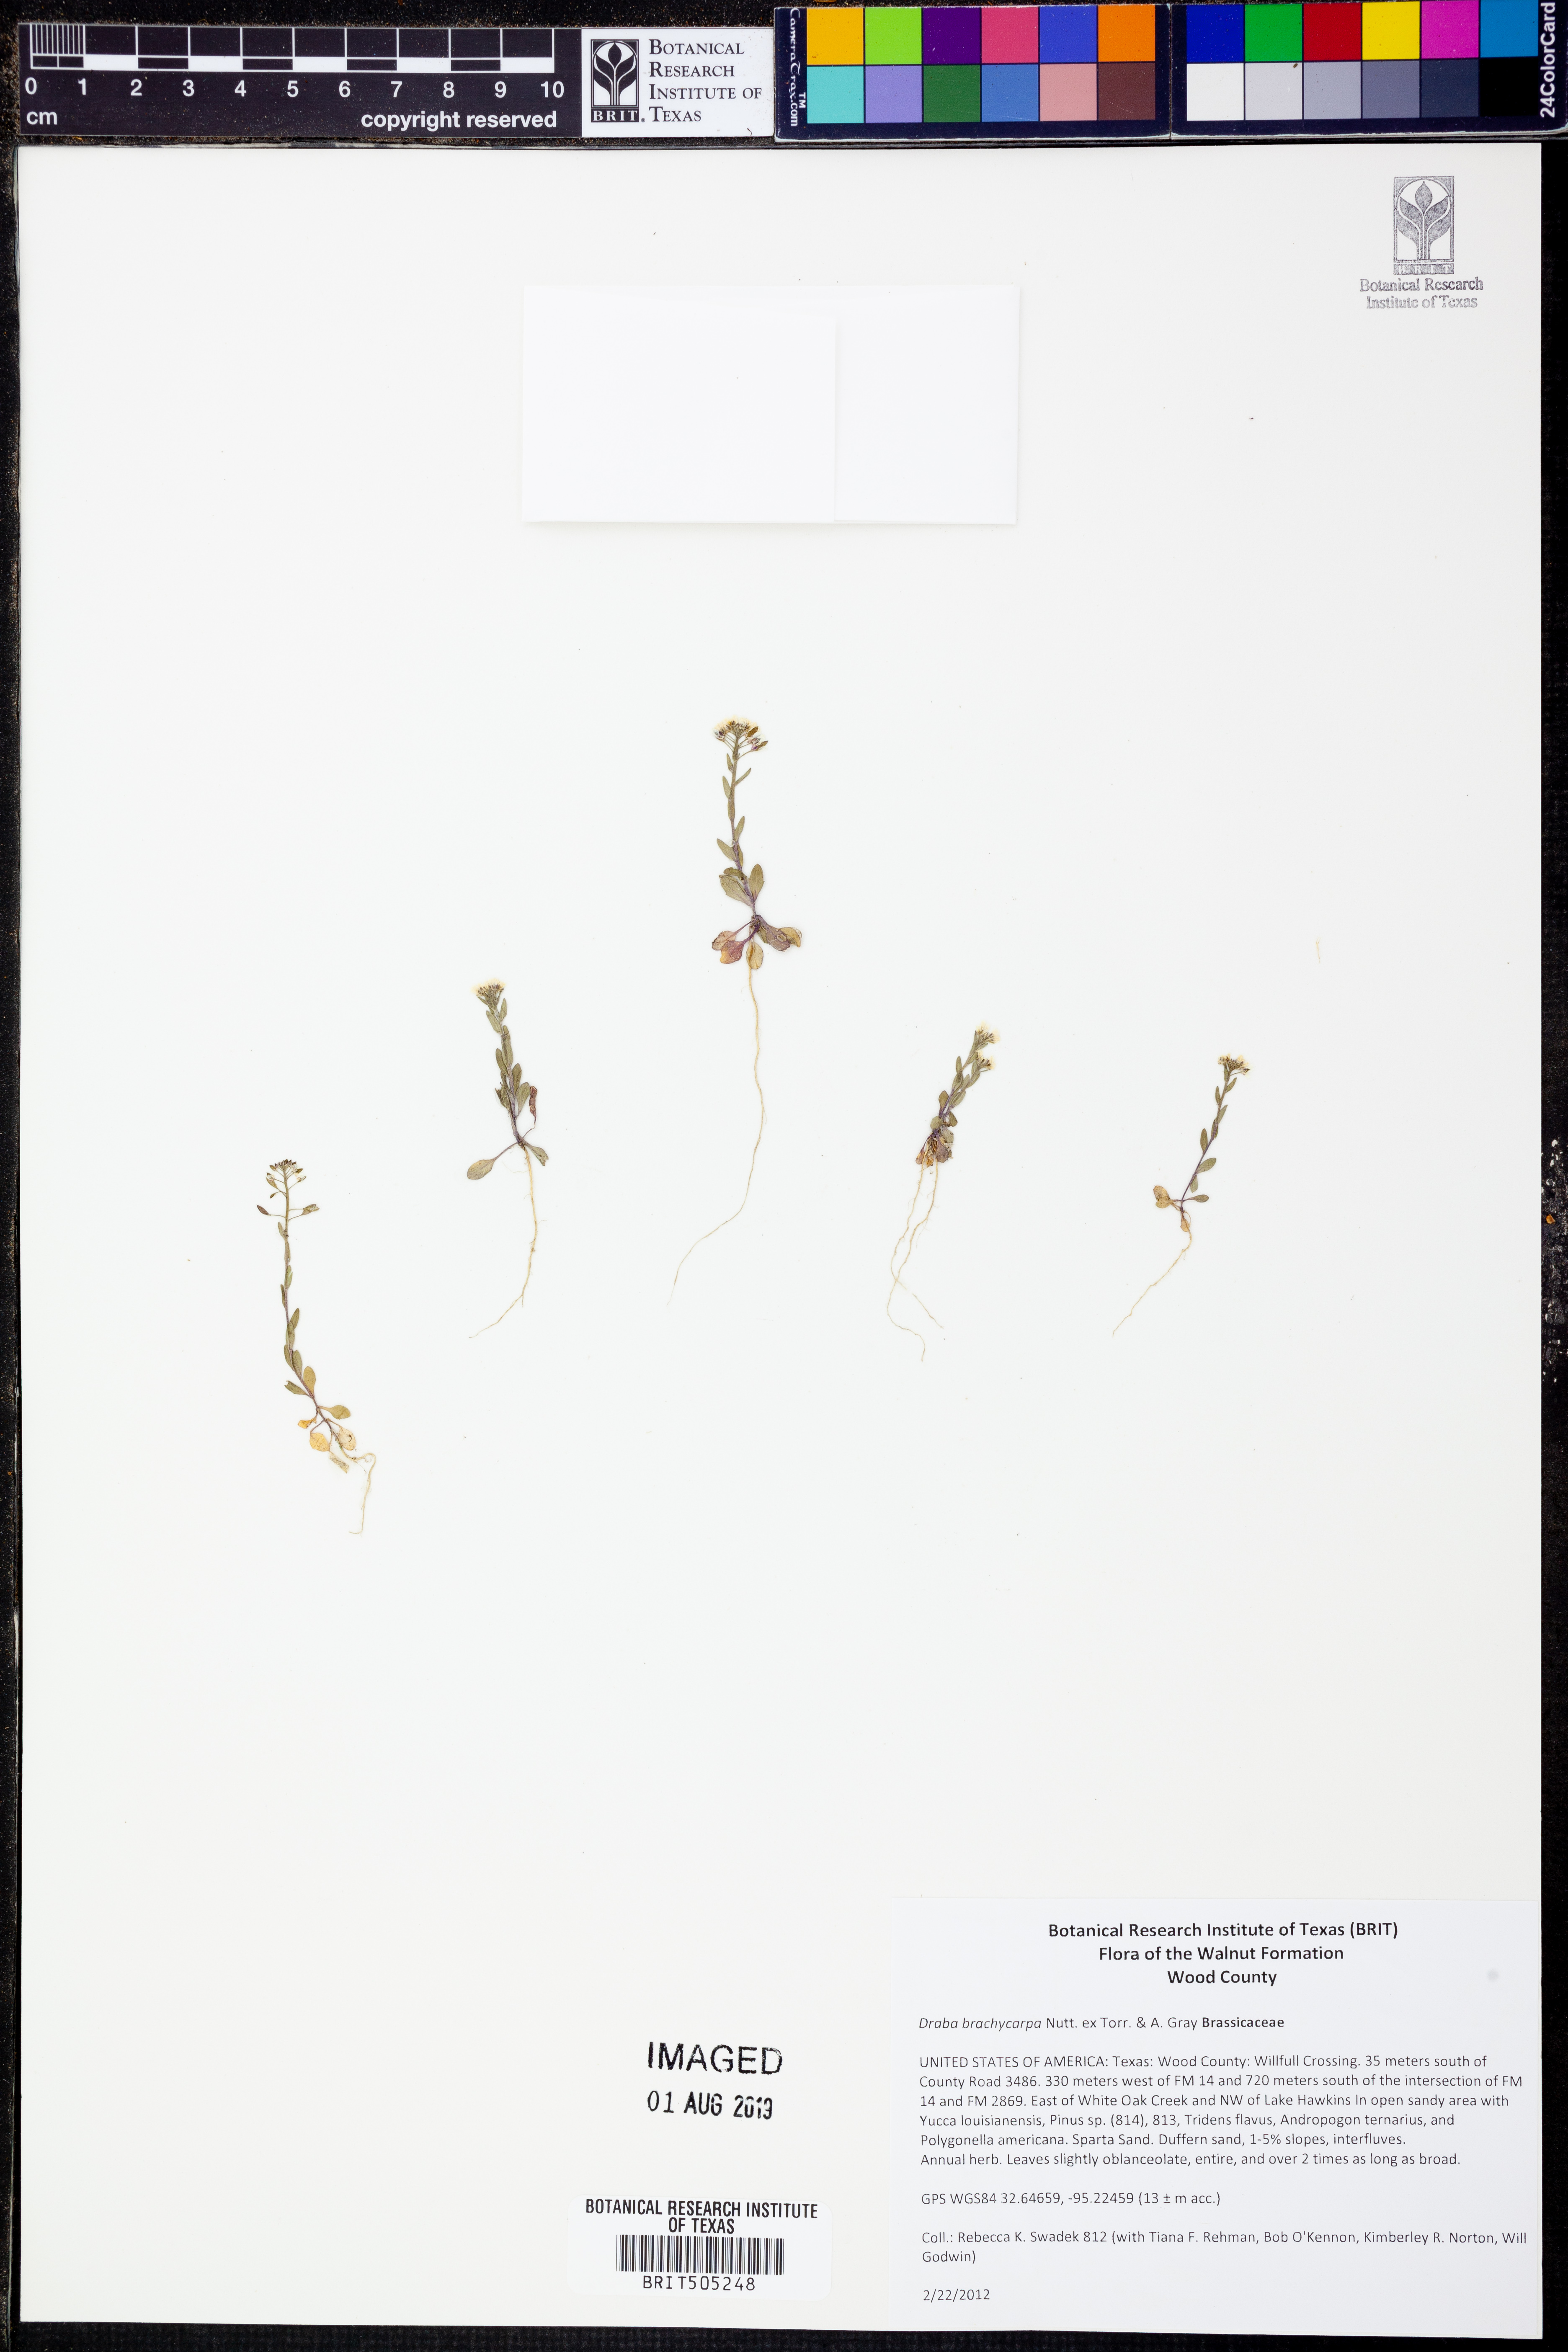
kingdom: Plantae
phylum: Tracheophyta
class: Magnoliopsida
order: Brassicales
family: Brassicaceae
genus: Abdra
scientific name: Abdra brachycarpa
